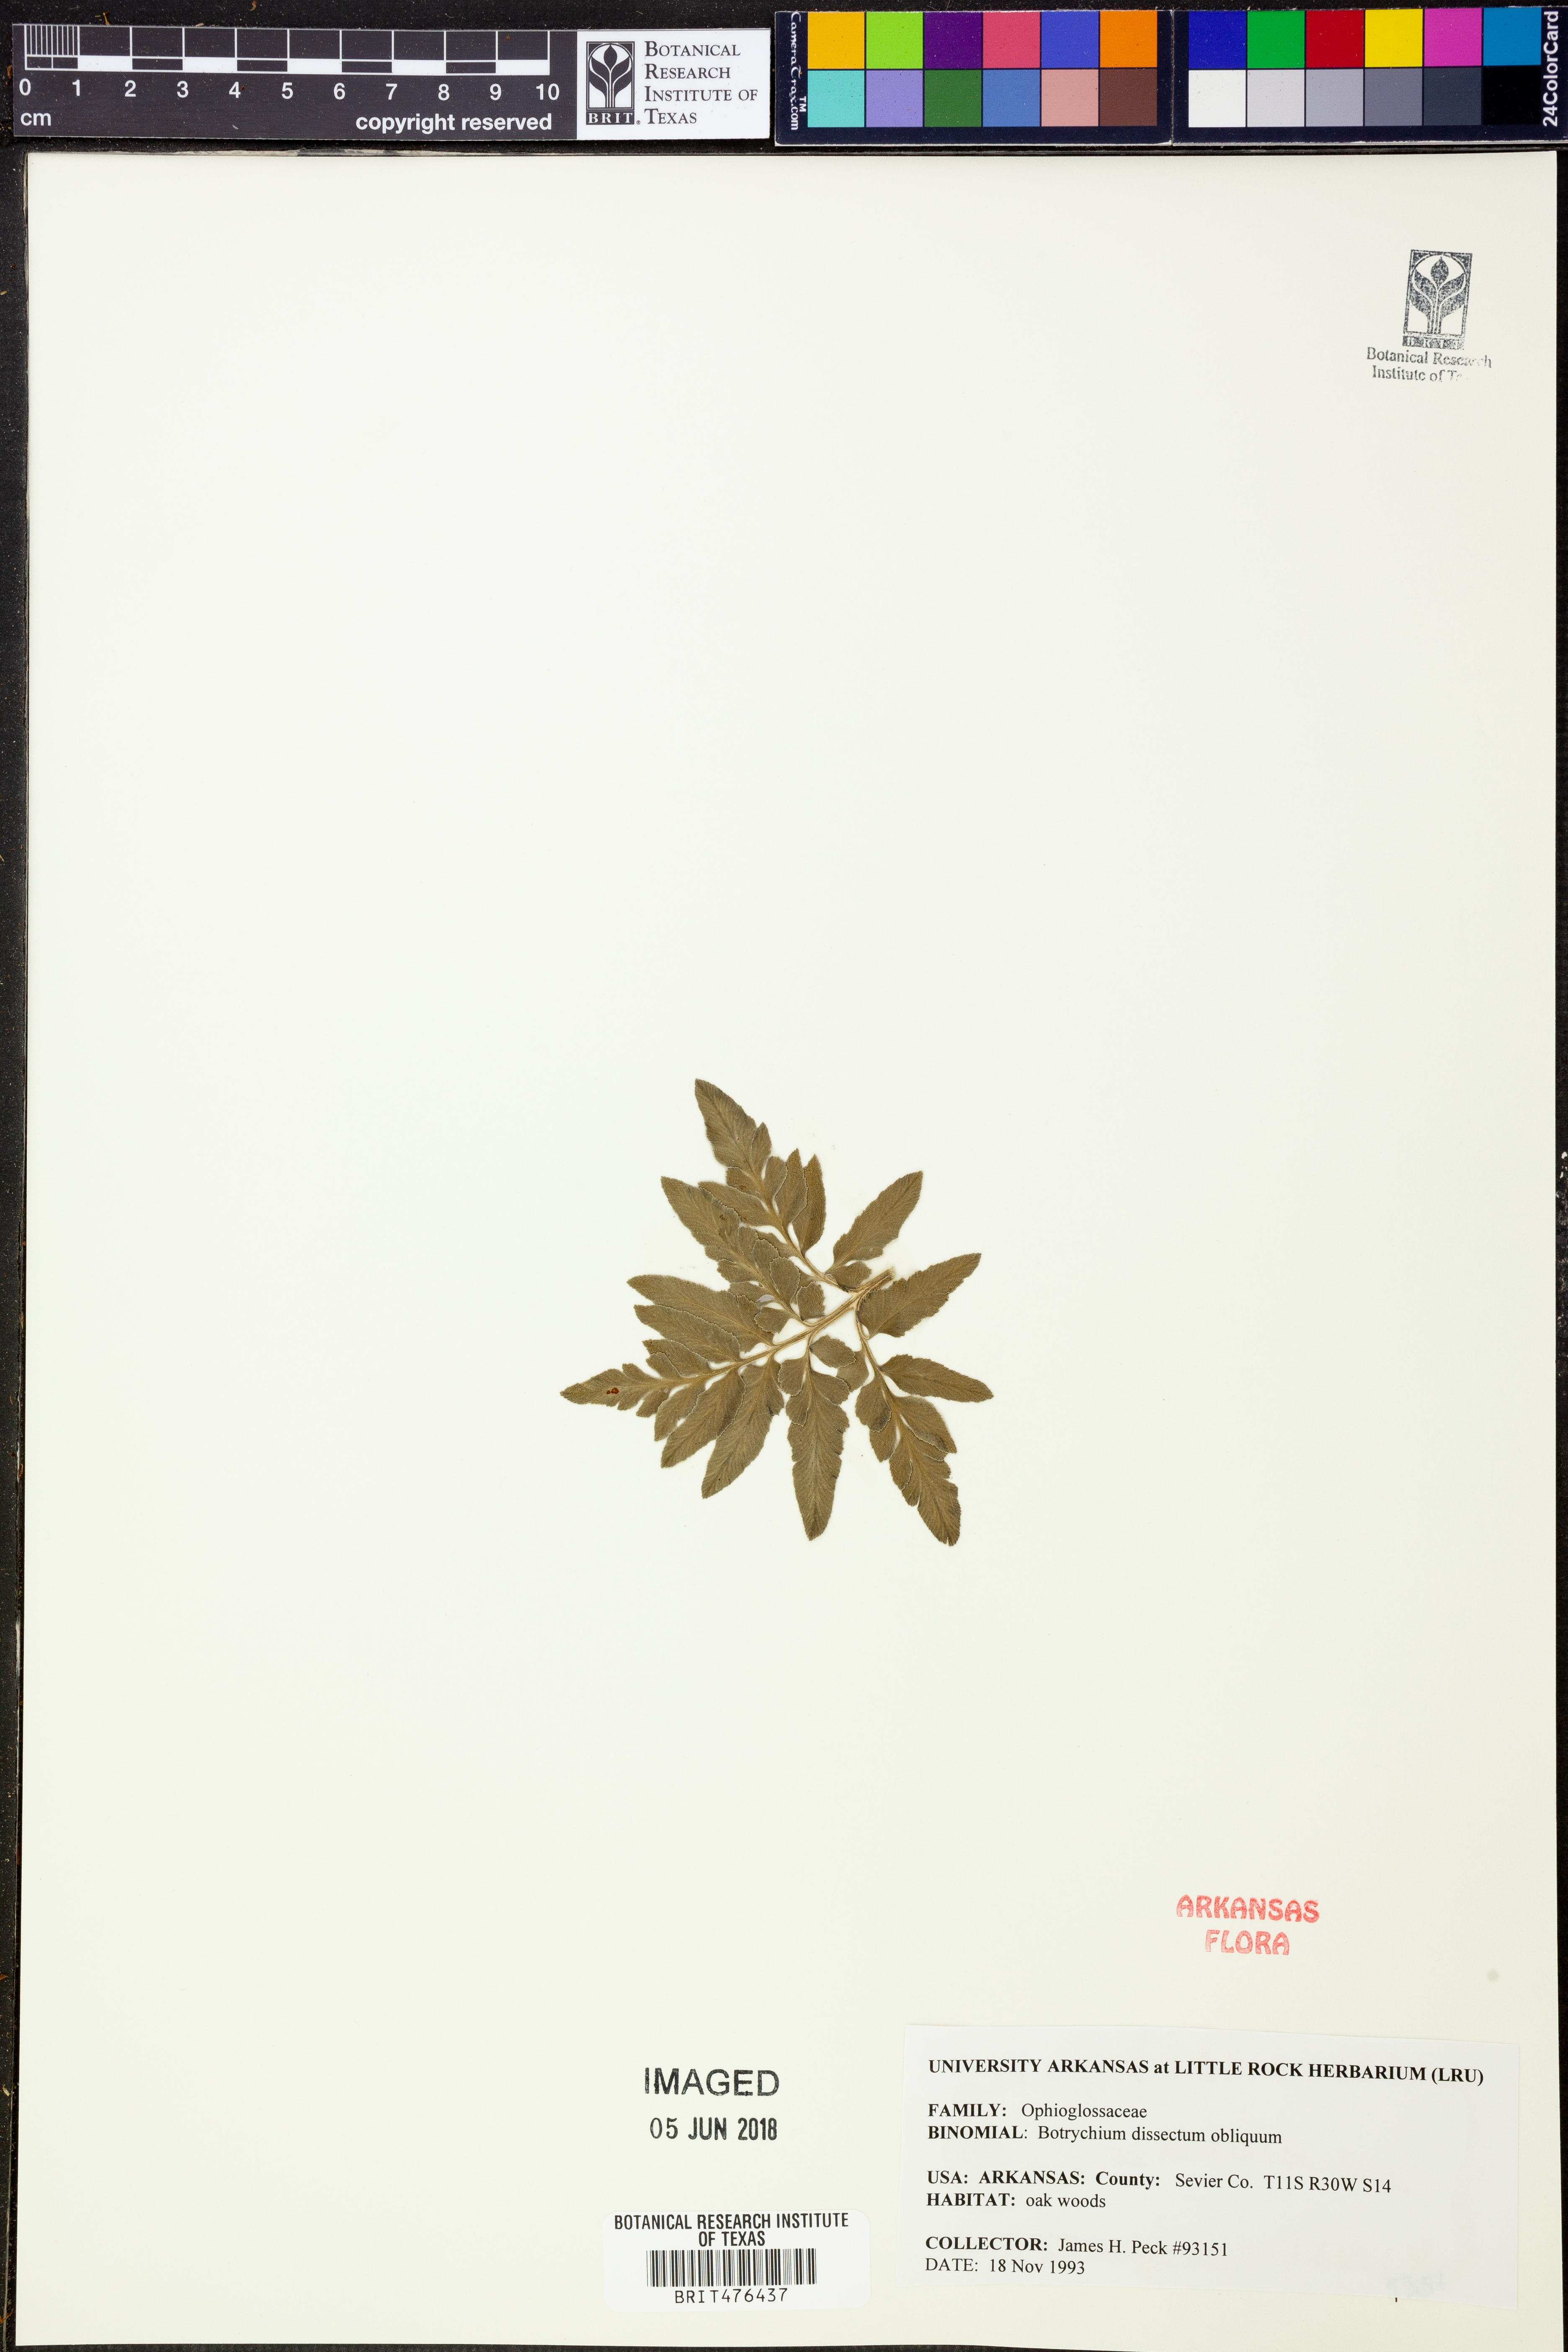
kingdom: Plantae
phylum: Tracheophyta
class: Polypodiopsida
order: Ophioglossales
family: Ophioglossaceae
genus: Sceptridium
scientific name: Sceptridium dissectum
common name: Cut-leaved grapefern
